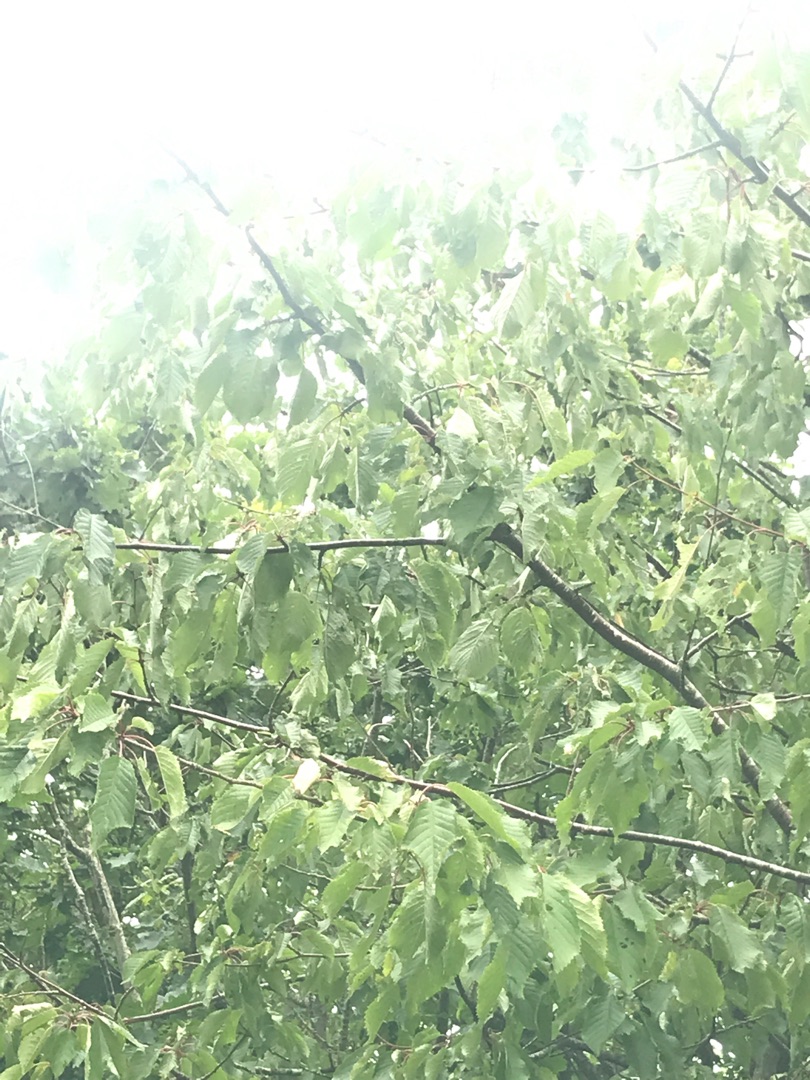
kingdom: Plantae
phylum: Tracheophyta
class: Magnoliopsida
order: Rosales
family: Rosaceae
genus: Prunus
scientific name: Prunus avium
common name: Fugle-kirsebær
